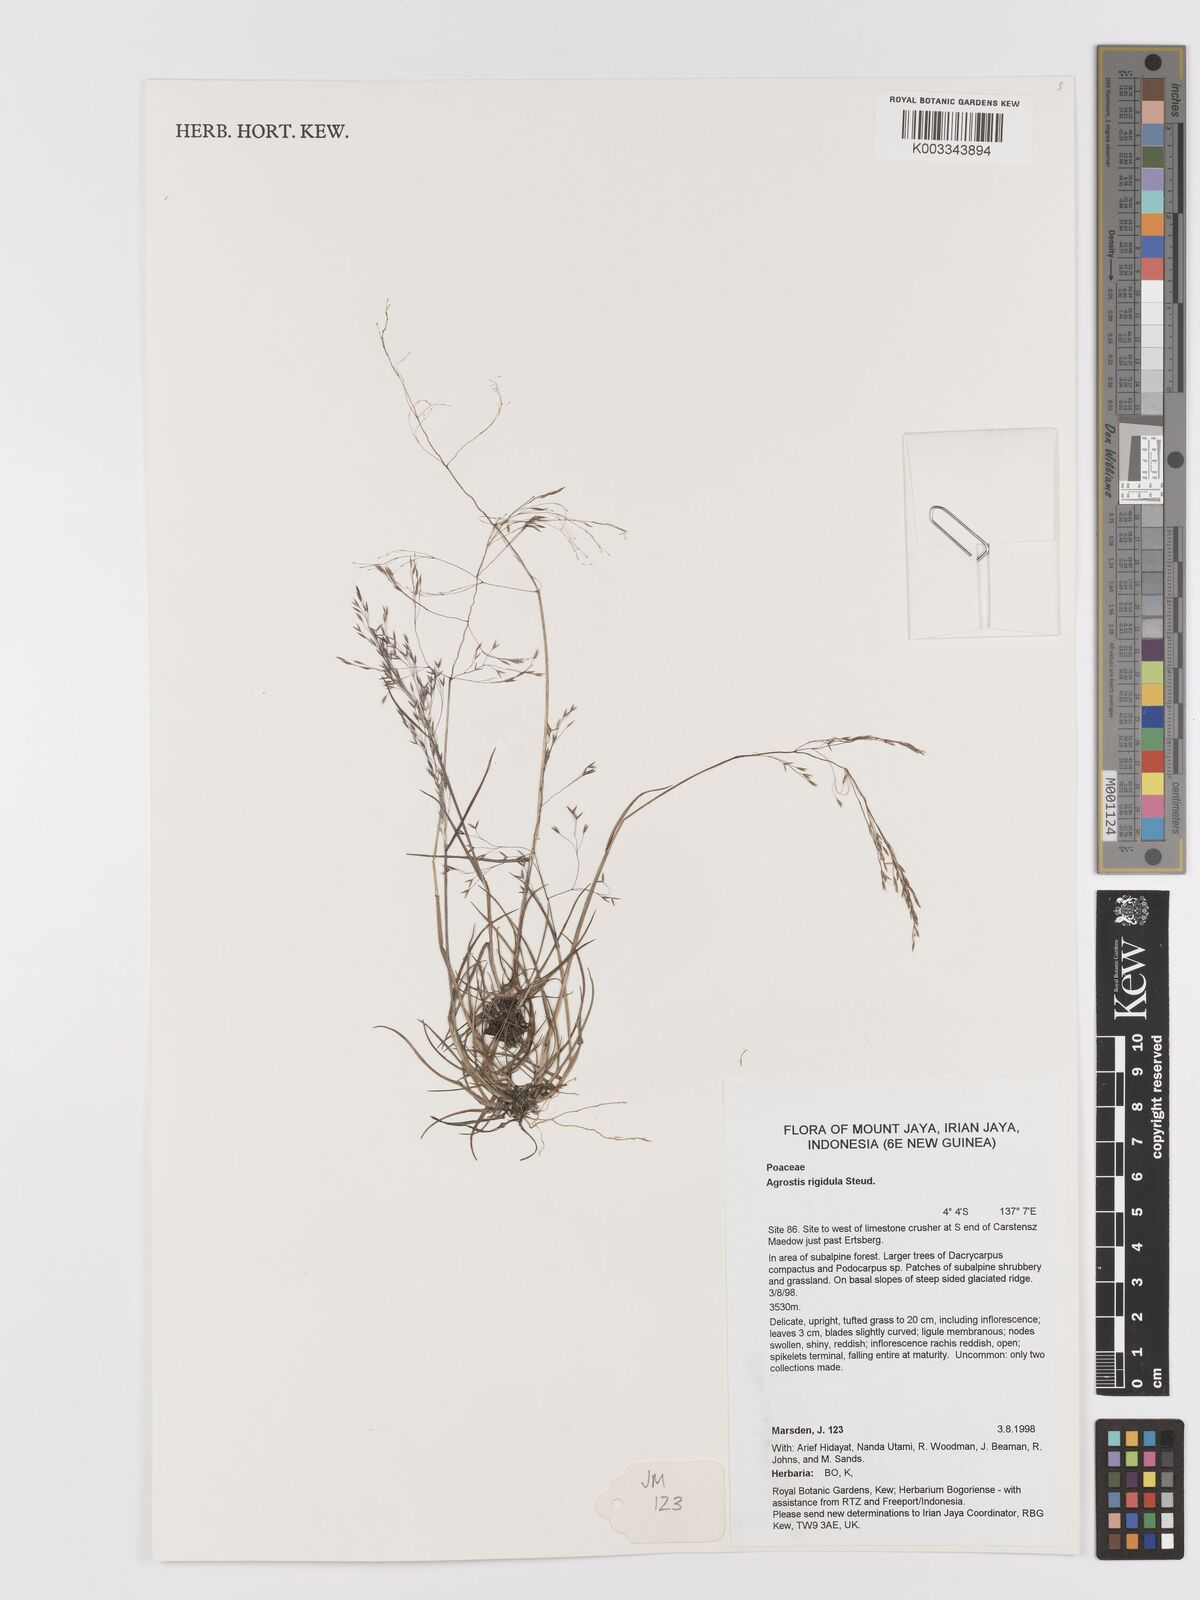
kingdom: Plantae
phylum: Tracheophyta
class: Liliopsida
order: Poales
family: Poaceae
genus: Agrostis
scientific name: Agrostis infirma
